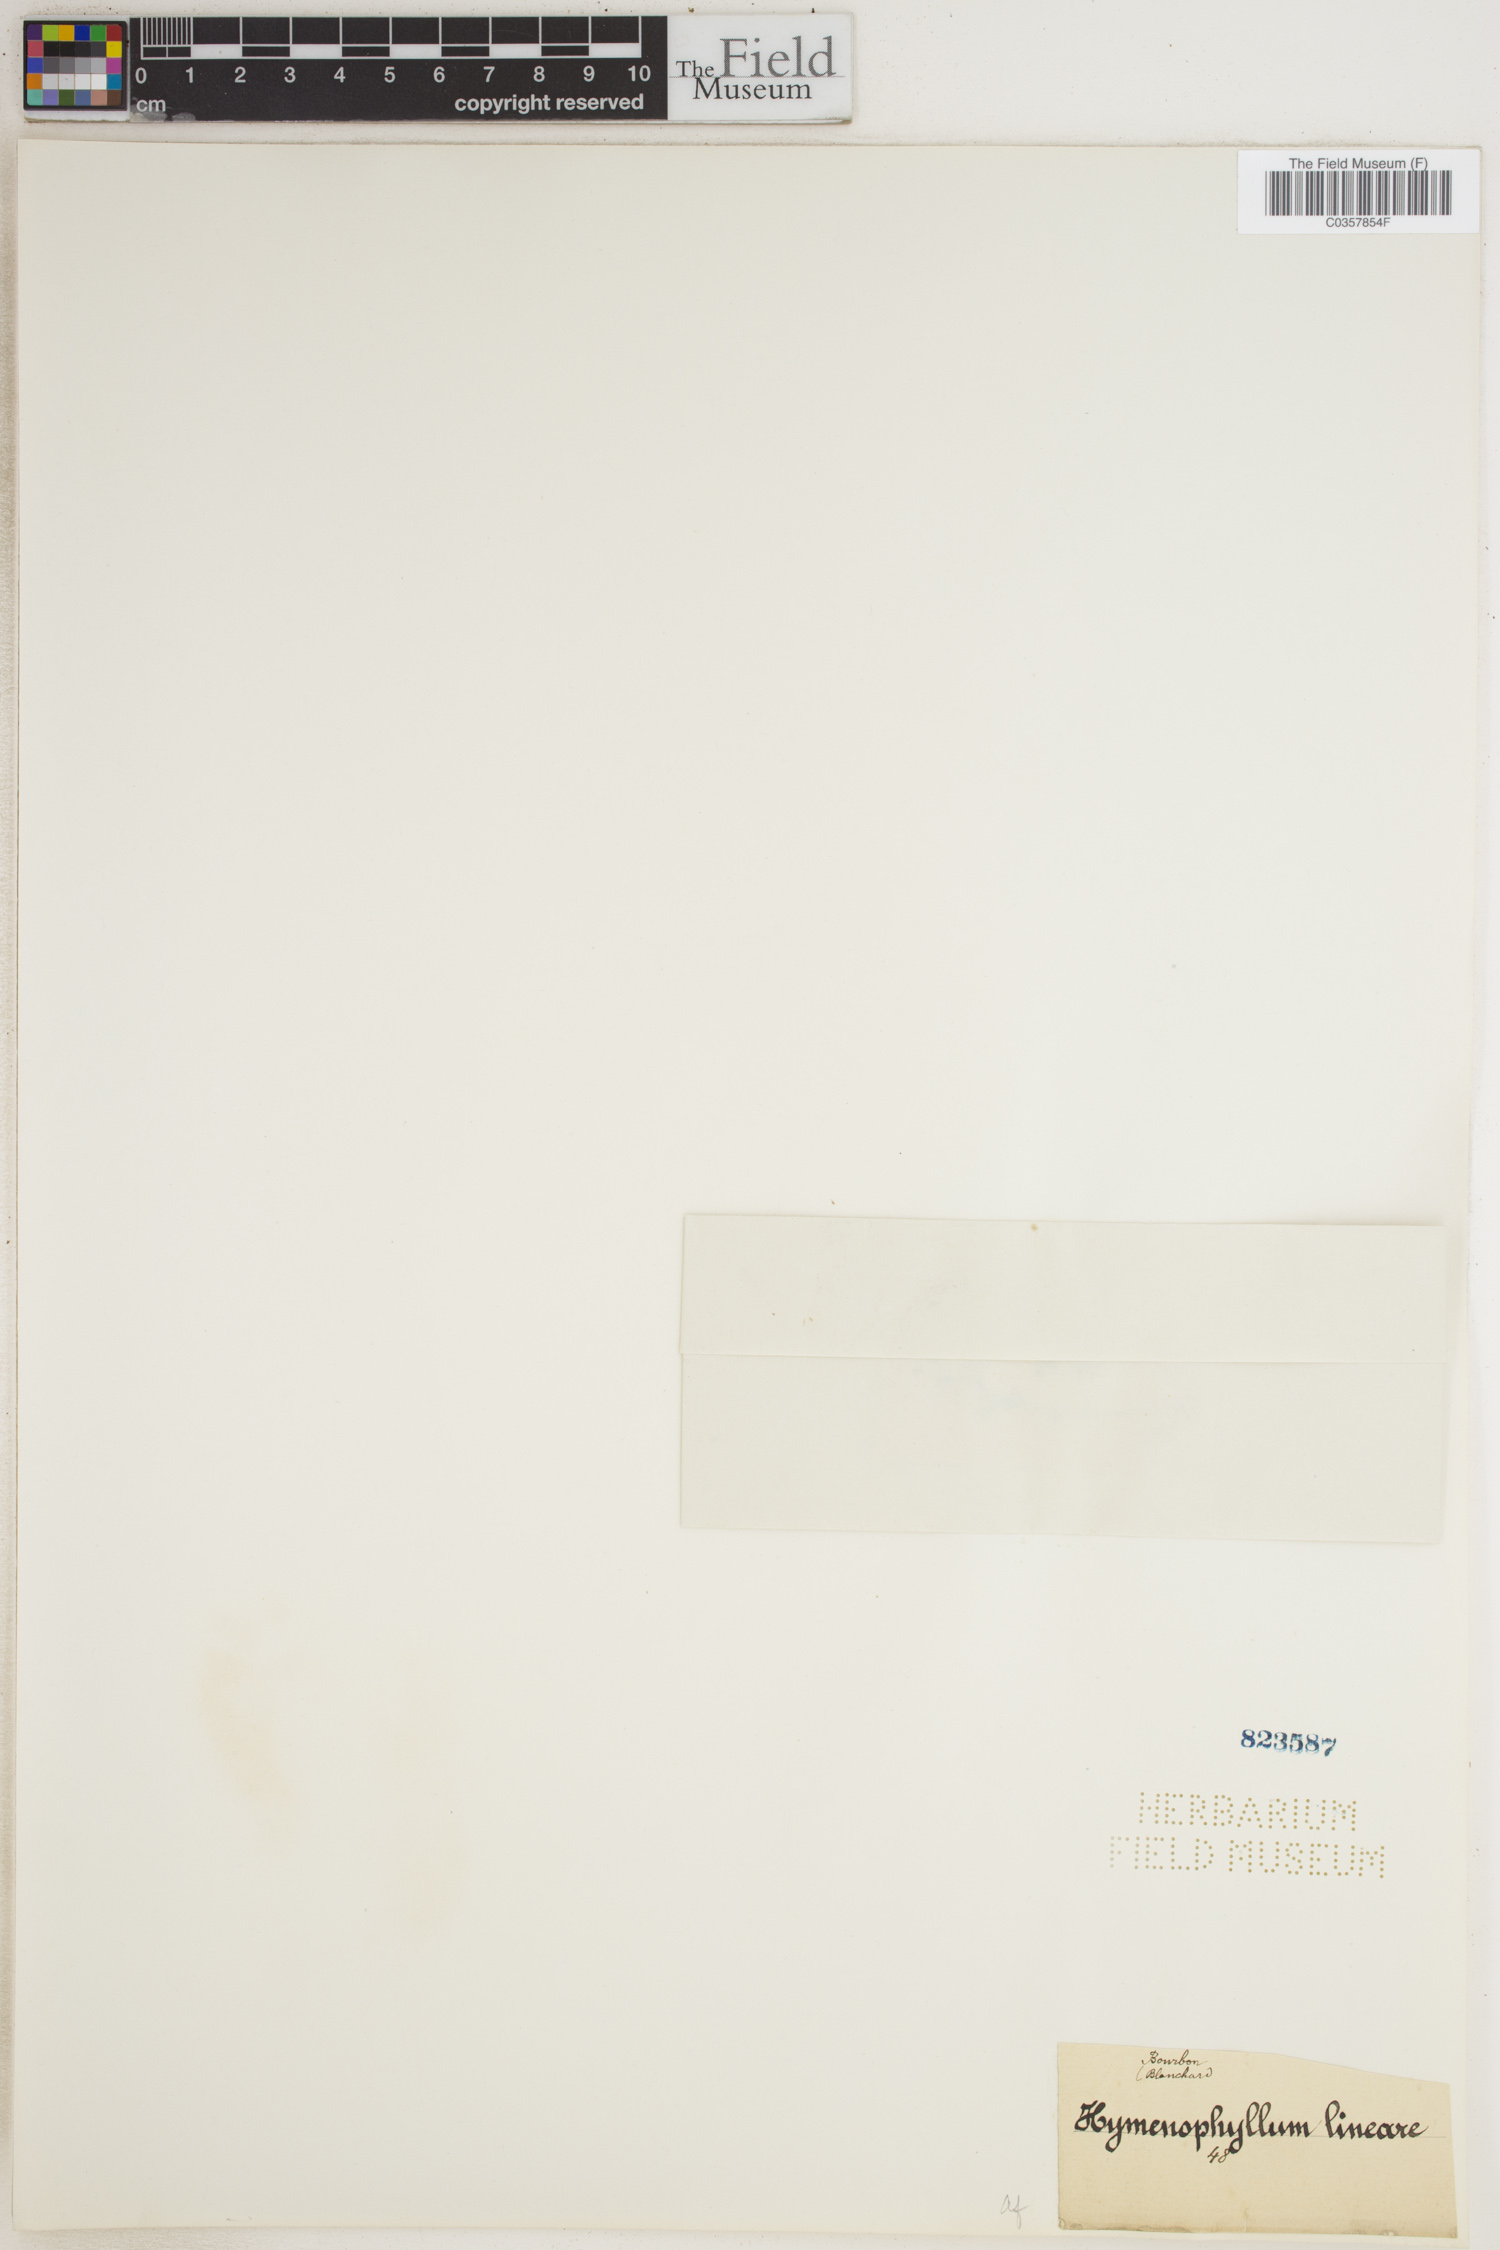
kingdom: Plantae
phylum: Tracheophyta
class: Polypodiopsida
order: Hymenophyllales
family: Hymenophyllaceae
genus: Hymenophyllum
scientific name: Hymenophyllum lineare
